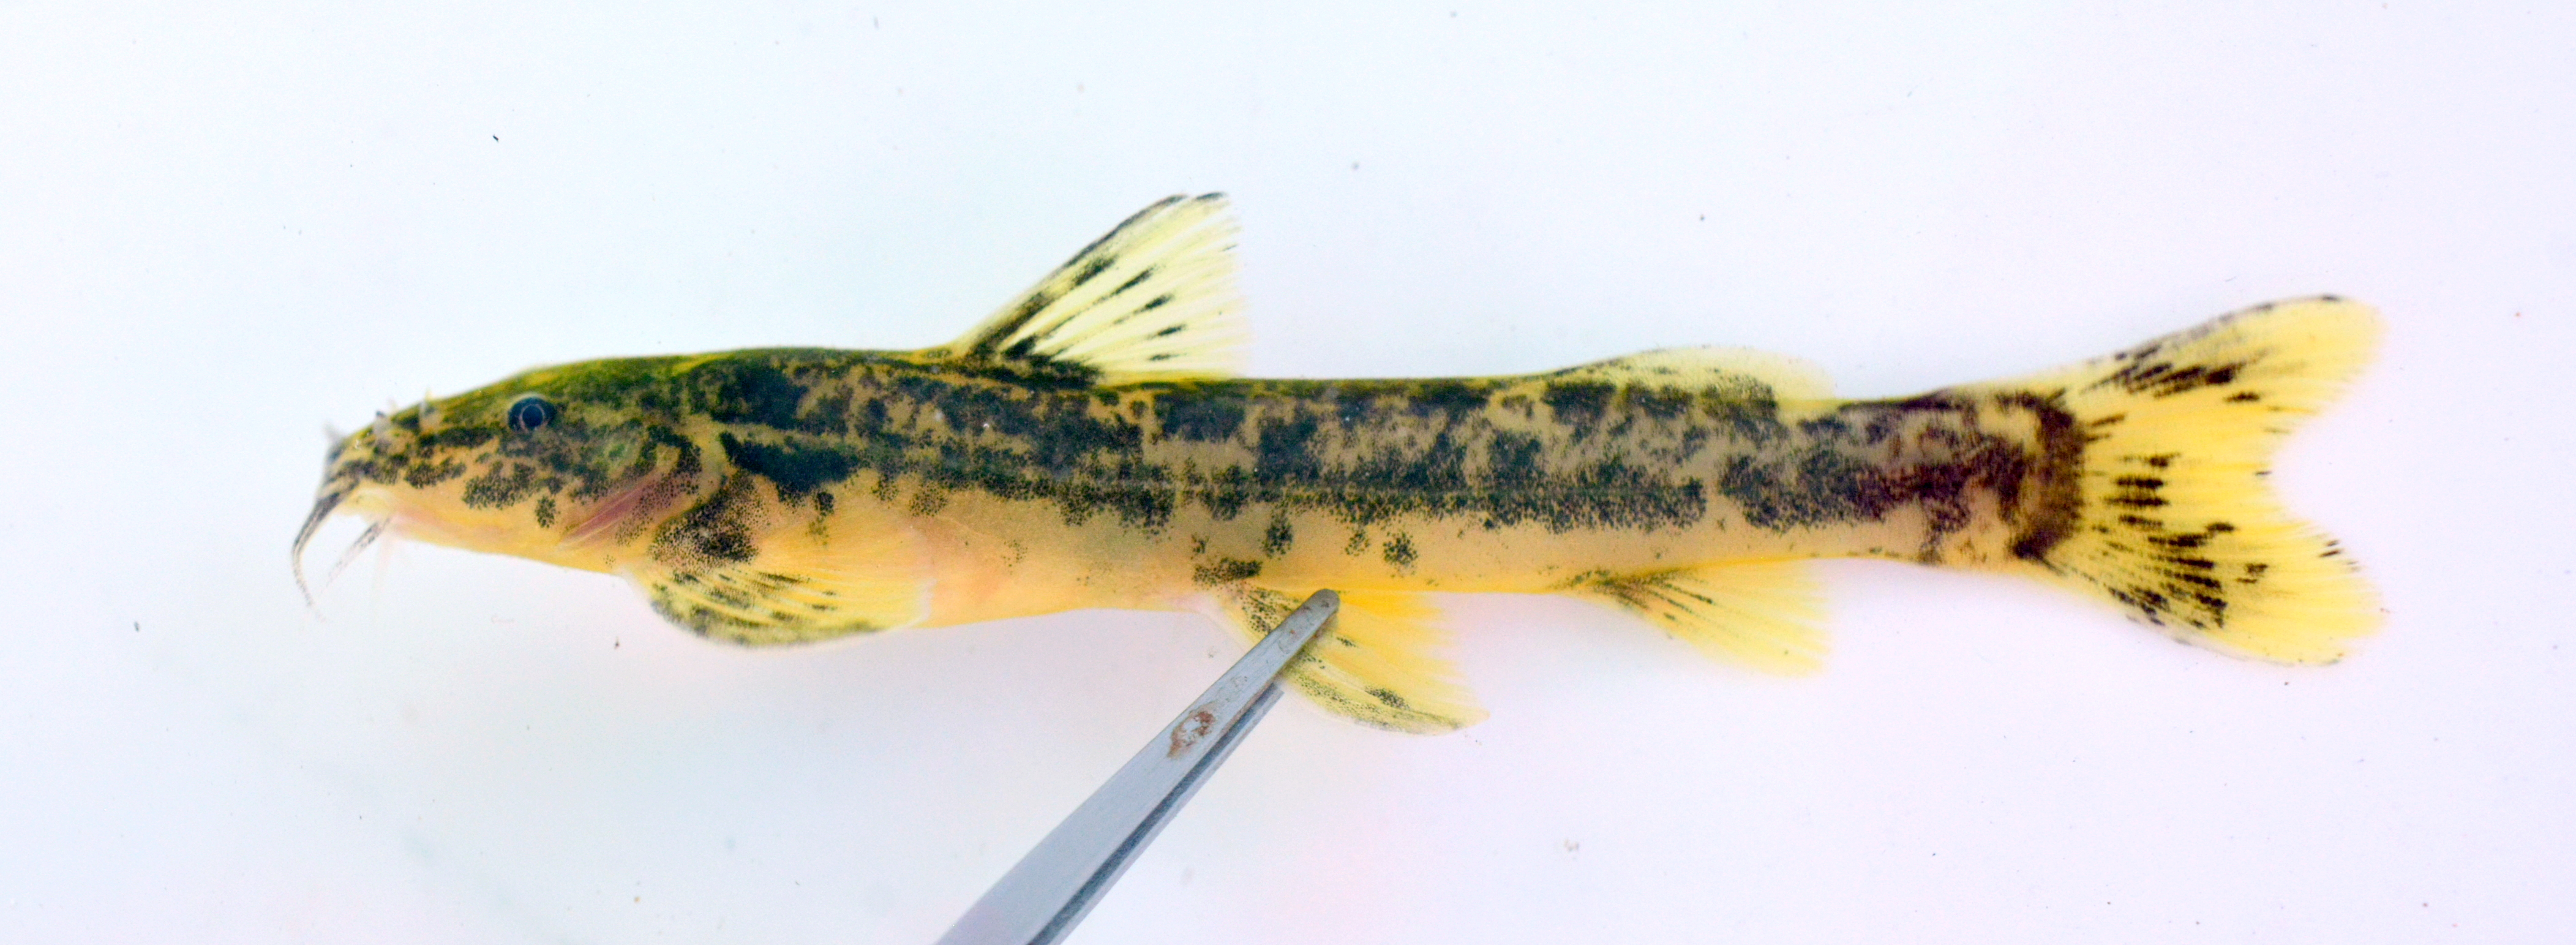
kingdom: Animalia
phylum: Chordata
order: Siluriformes
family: Amphiliidae
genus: Amphilius
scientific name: Amphilius uranoscopus
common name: Stargazer mountain catfish
